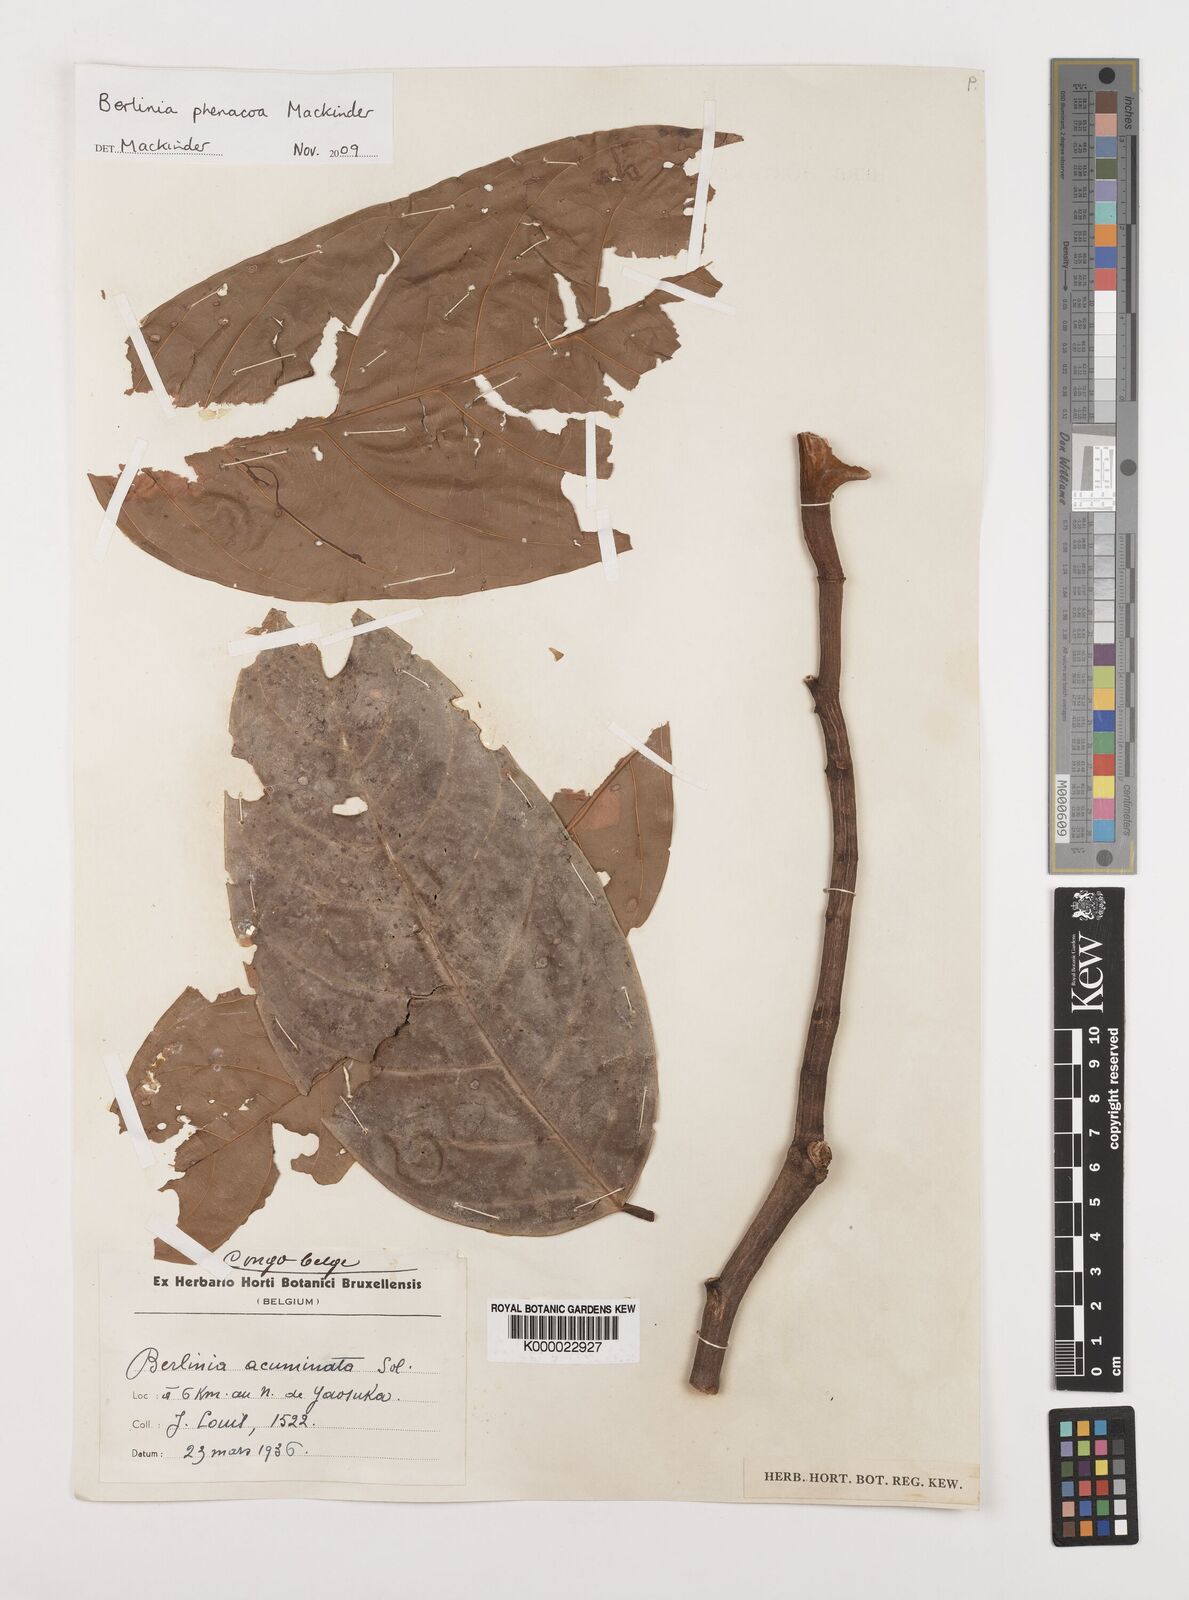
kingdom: Plantae
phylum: Tracheophyta
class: Magnoliopsida
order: Fabales
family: Fabaceae
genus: Berlinia
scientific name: Berlinia phenacoa
